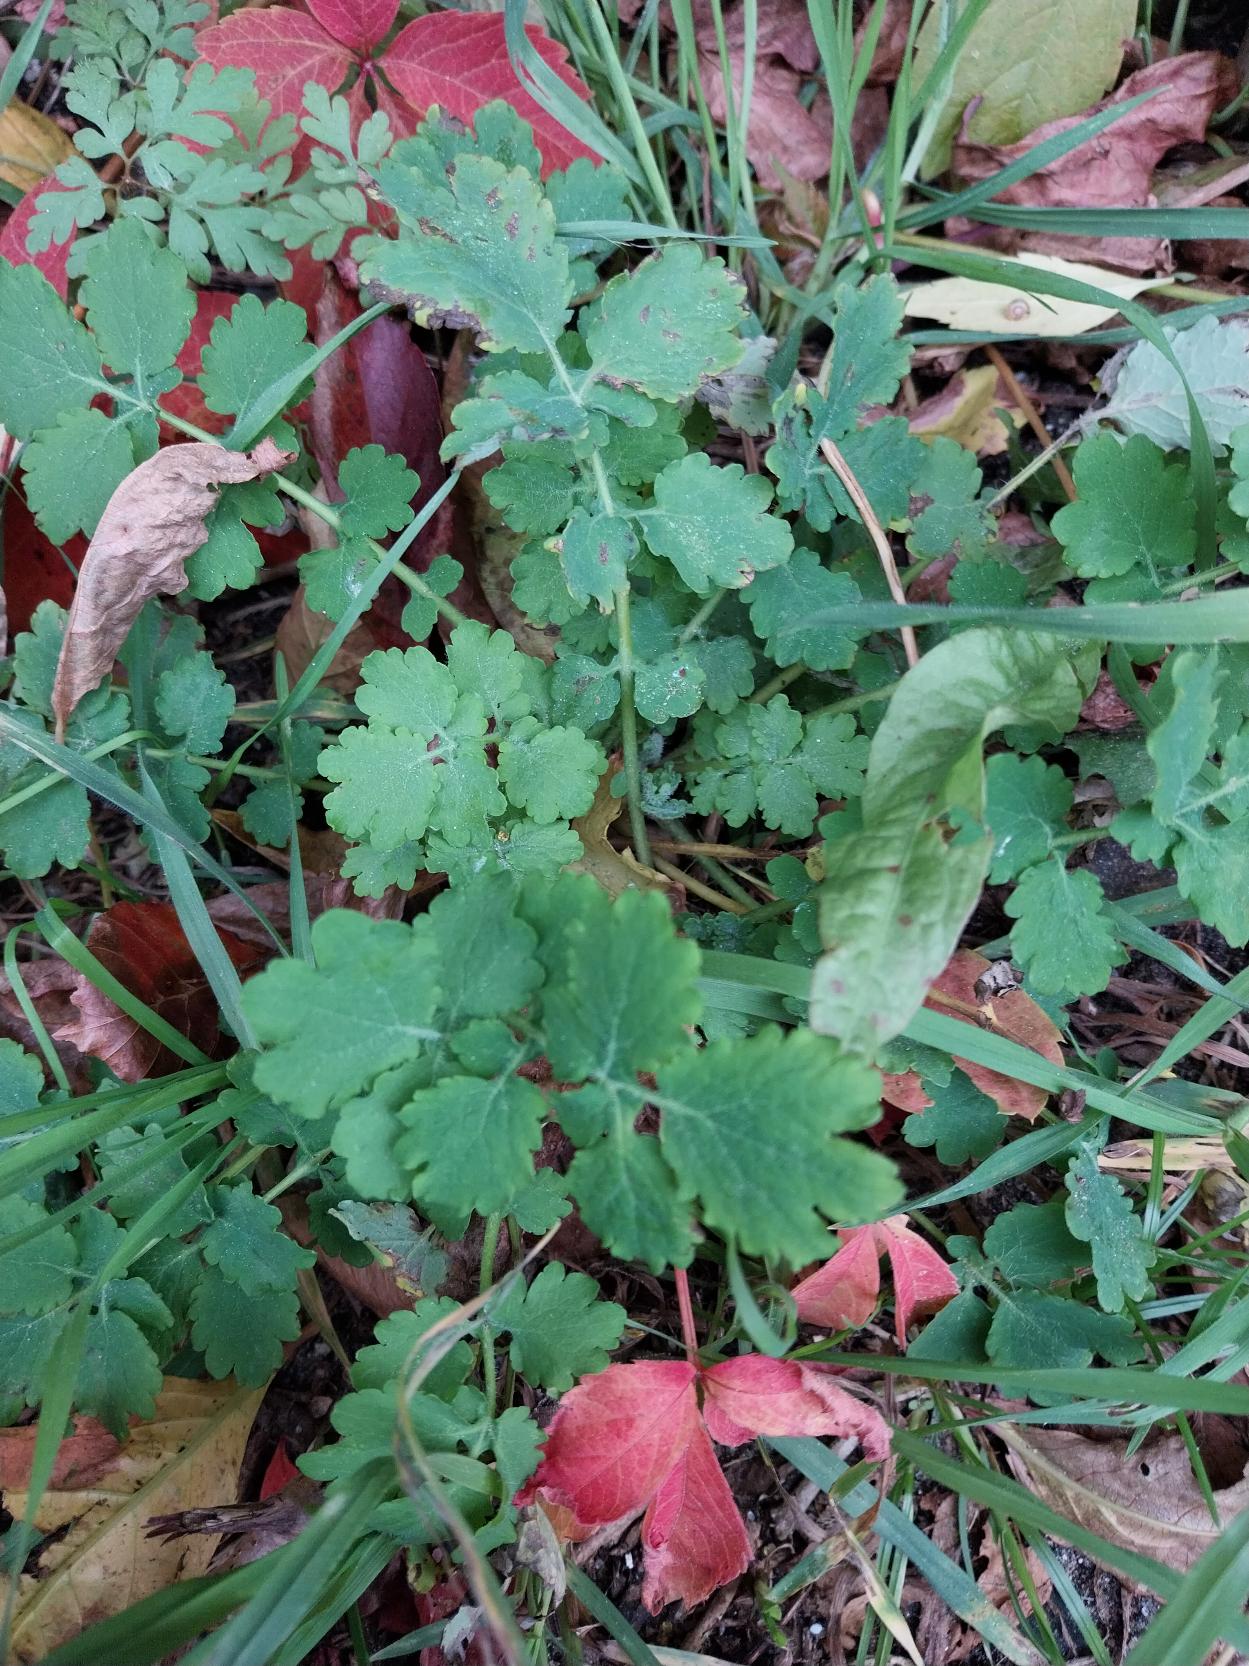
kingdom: Plantae
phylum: Tracheophyta
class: Magnoliopsida
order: Ranunculales
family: Papaveraceae
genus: Chelidonium
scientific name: Chelidonium majus
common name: Svaleurt
